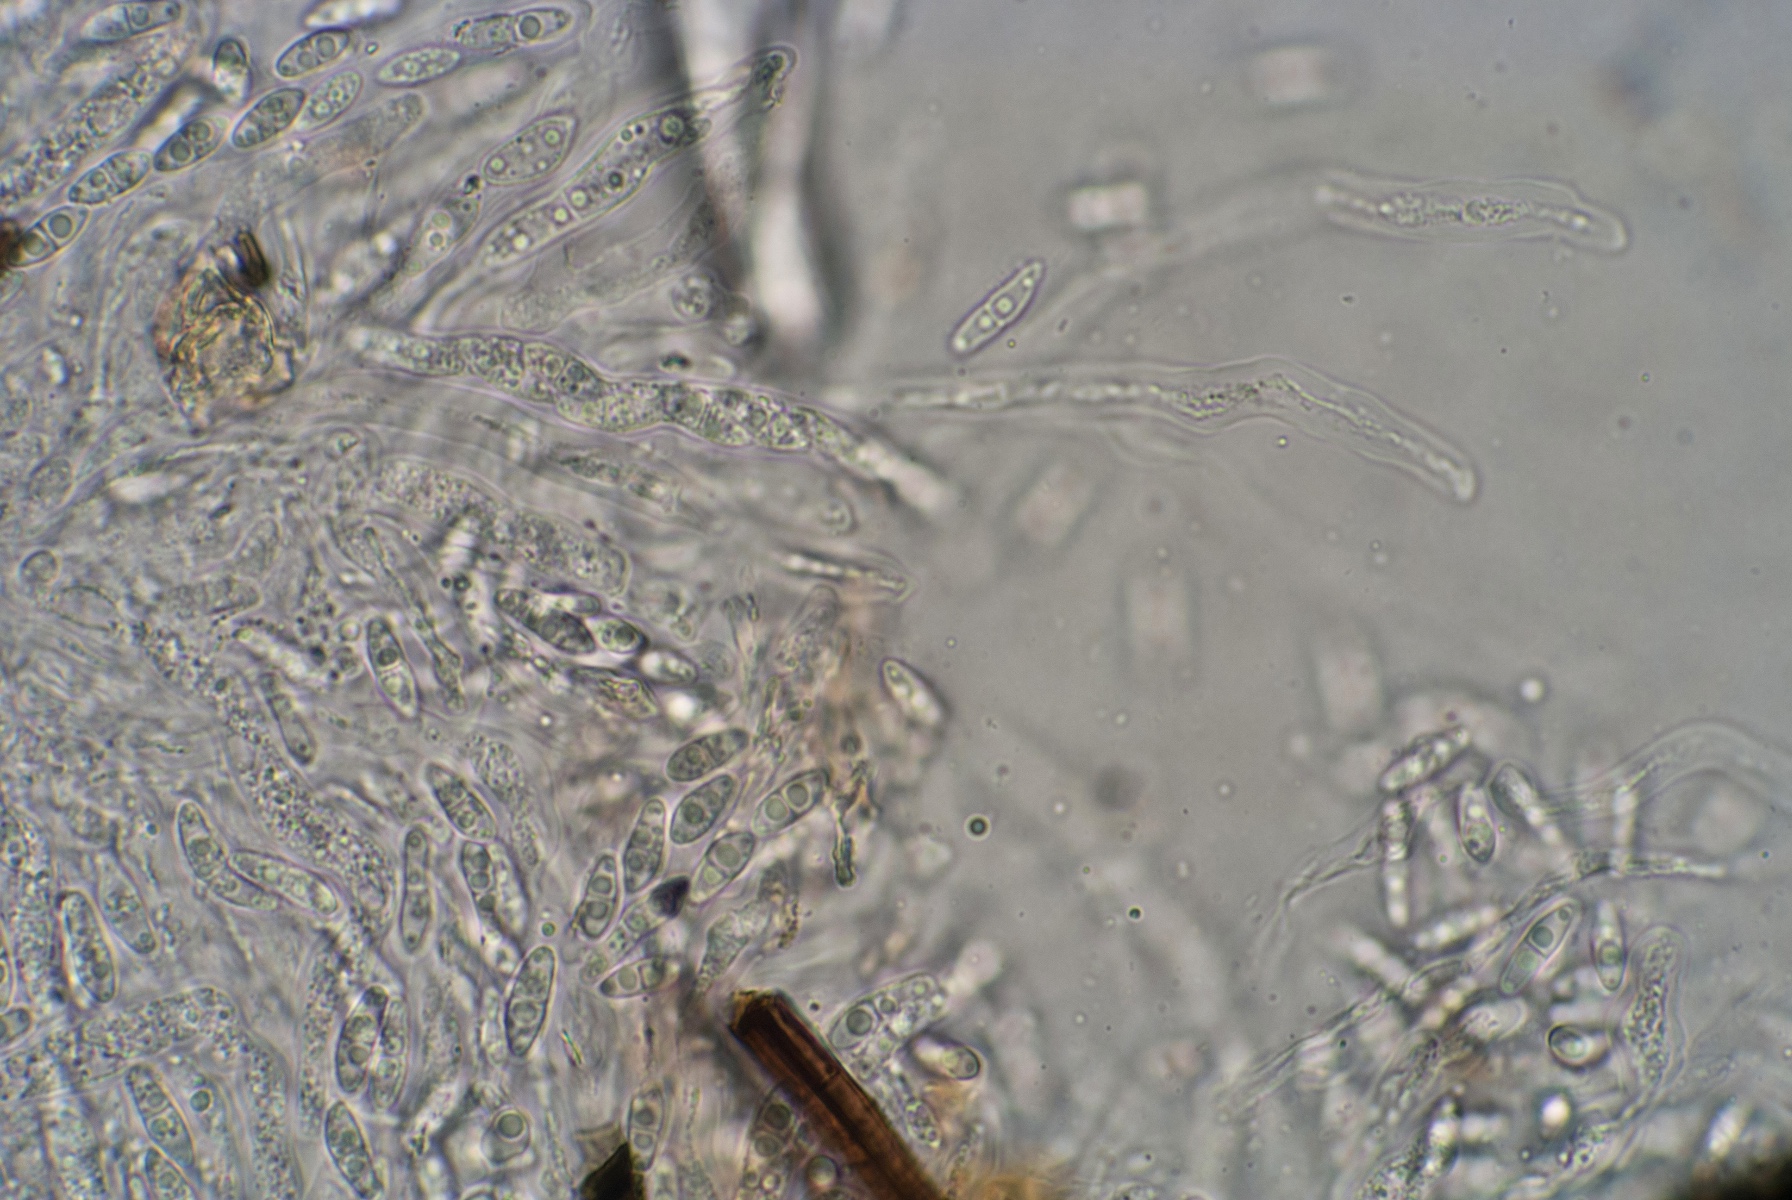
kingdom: Fungi
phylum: Ascomycota
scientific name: Ascomycota
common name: sæksvampe
